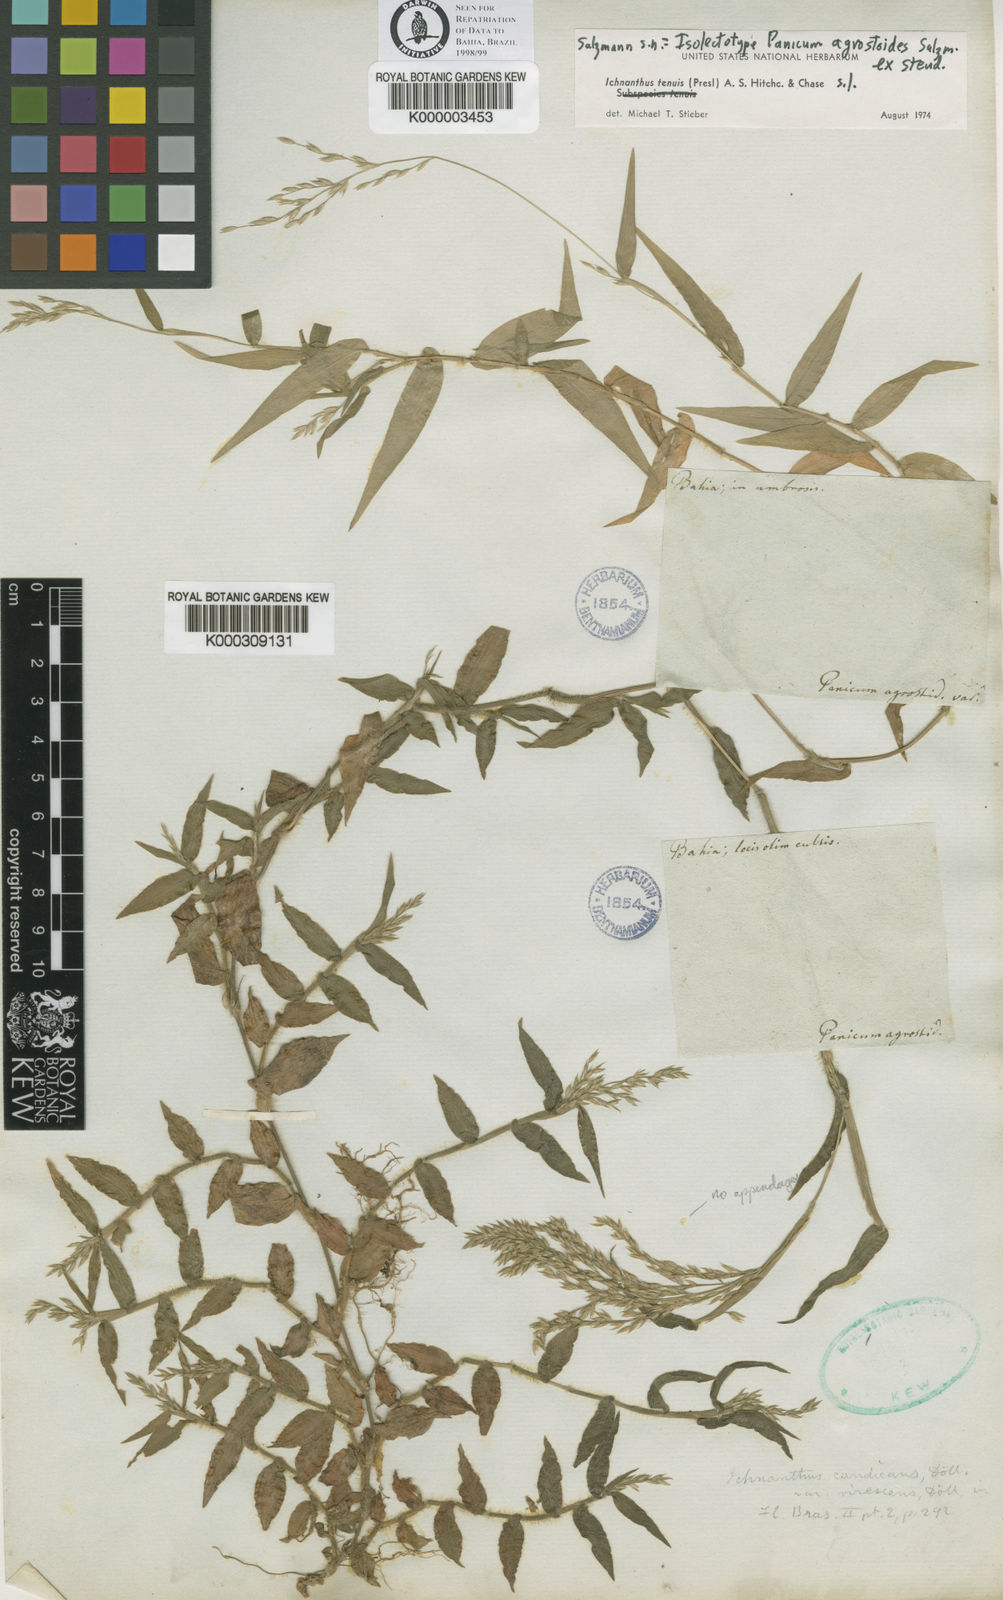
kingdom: Plantae
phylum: Tracheophyta
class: Liliopsida
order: Poales
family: Poaceae
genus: Ichnanthus
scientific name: Ichnanthus tenuis
